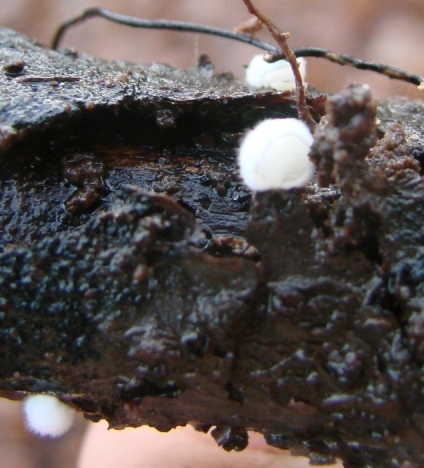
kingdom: Fungi
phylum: Basidiomycota
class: Agaricomycetes
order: Agaricales
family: Crepidotaceae
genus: Crepidotus
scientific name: Crepidotus cesatii
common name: almindelig muslingesvamp
